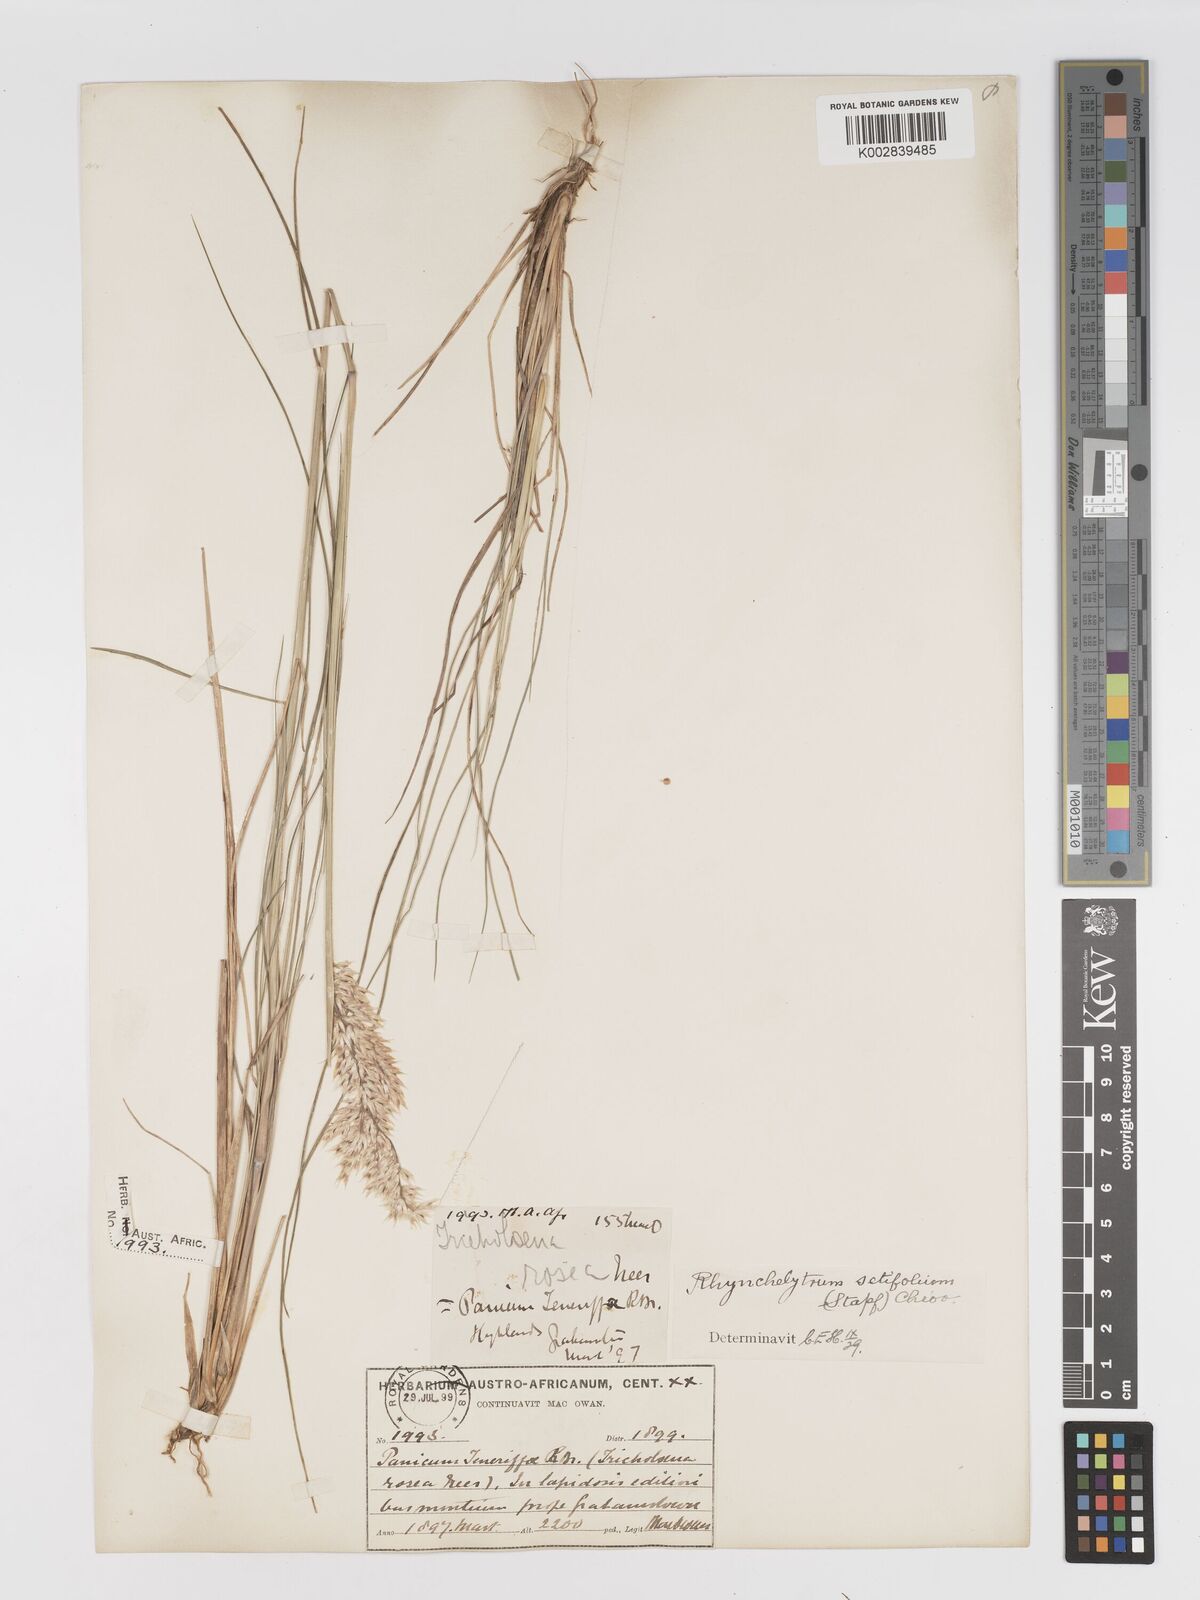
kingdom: Plantae
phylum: Tracheophyta
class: Liliopsida
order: Poales
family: Poaceae
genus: Melinis
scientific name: Melinis nerviglumis
